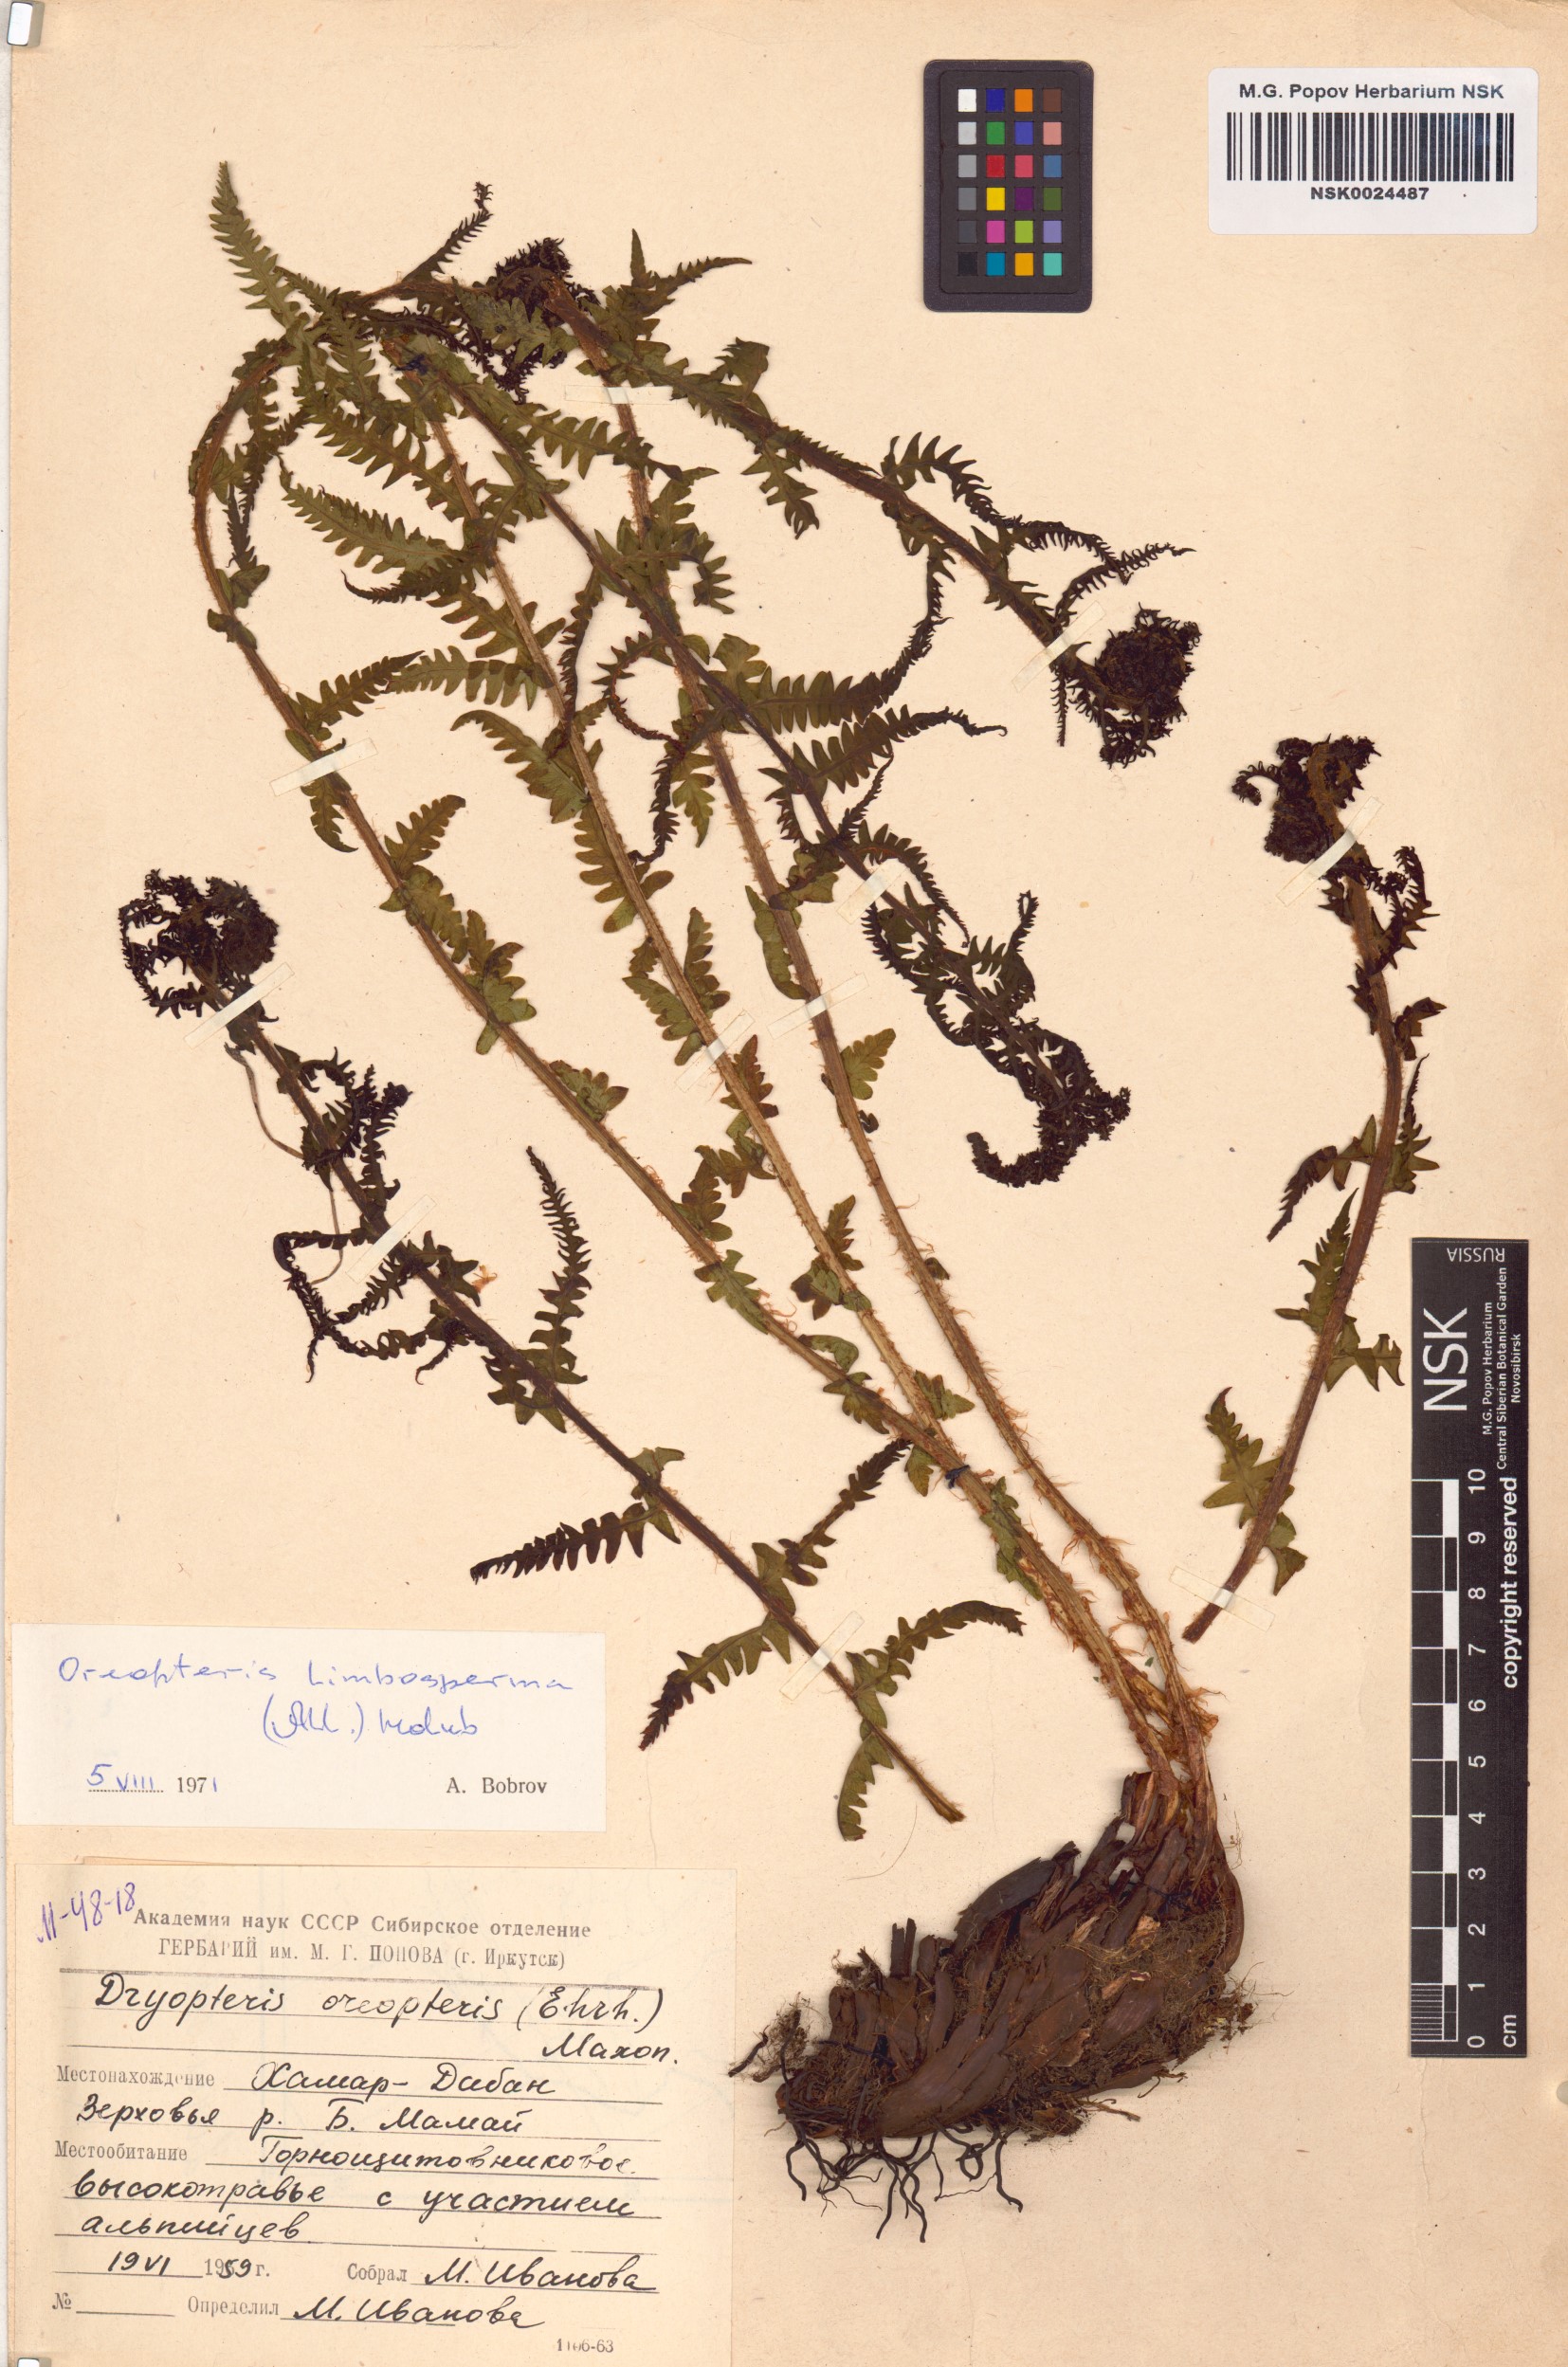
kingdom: Plantae
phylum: Tracheophyta
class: Polypodiopsida
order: Polypodiales
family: Thelypteridaceae
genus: Oreopteris
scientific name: Oreopteris limbosperma
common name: Lemon-scented fern
